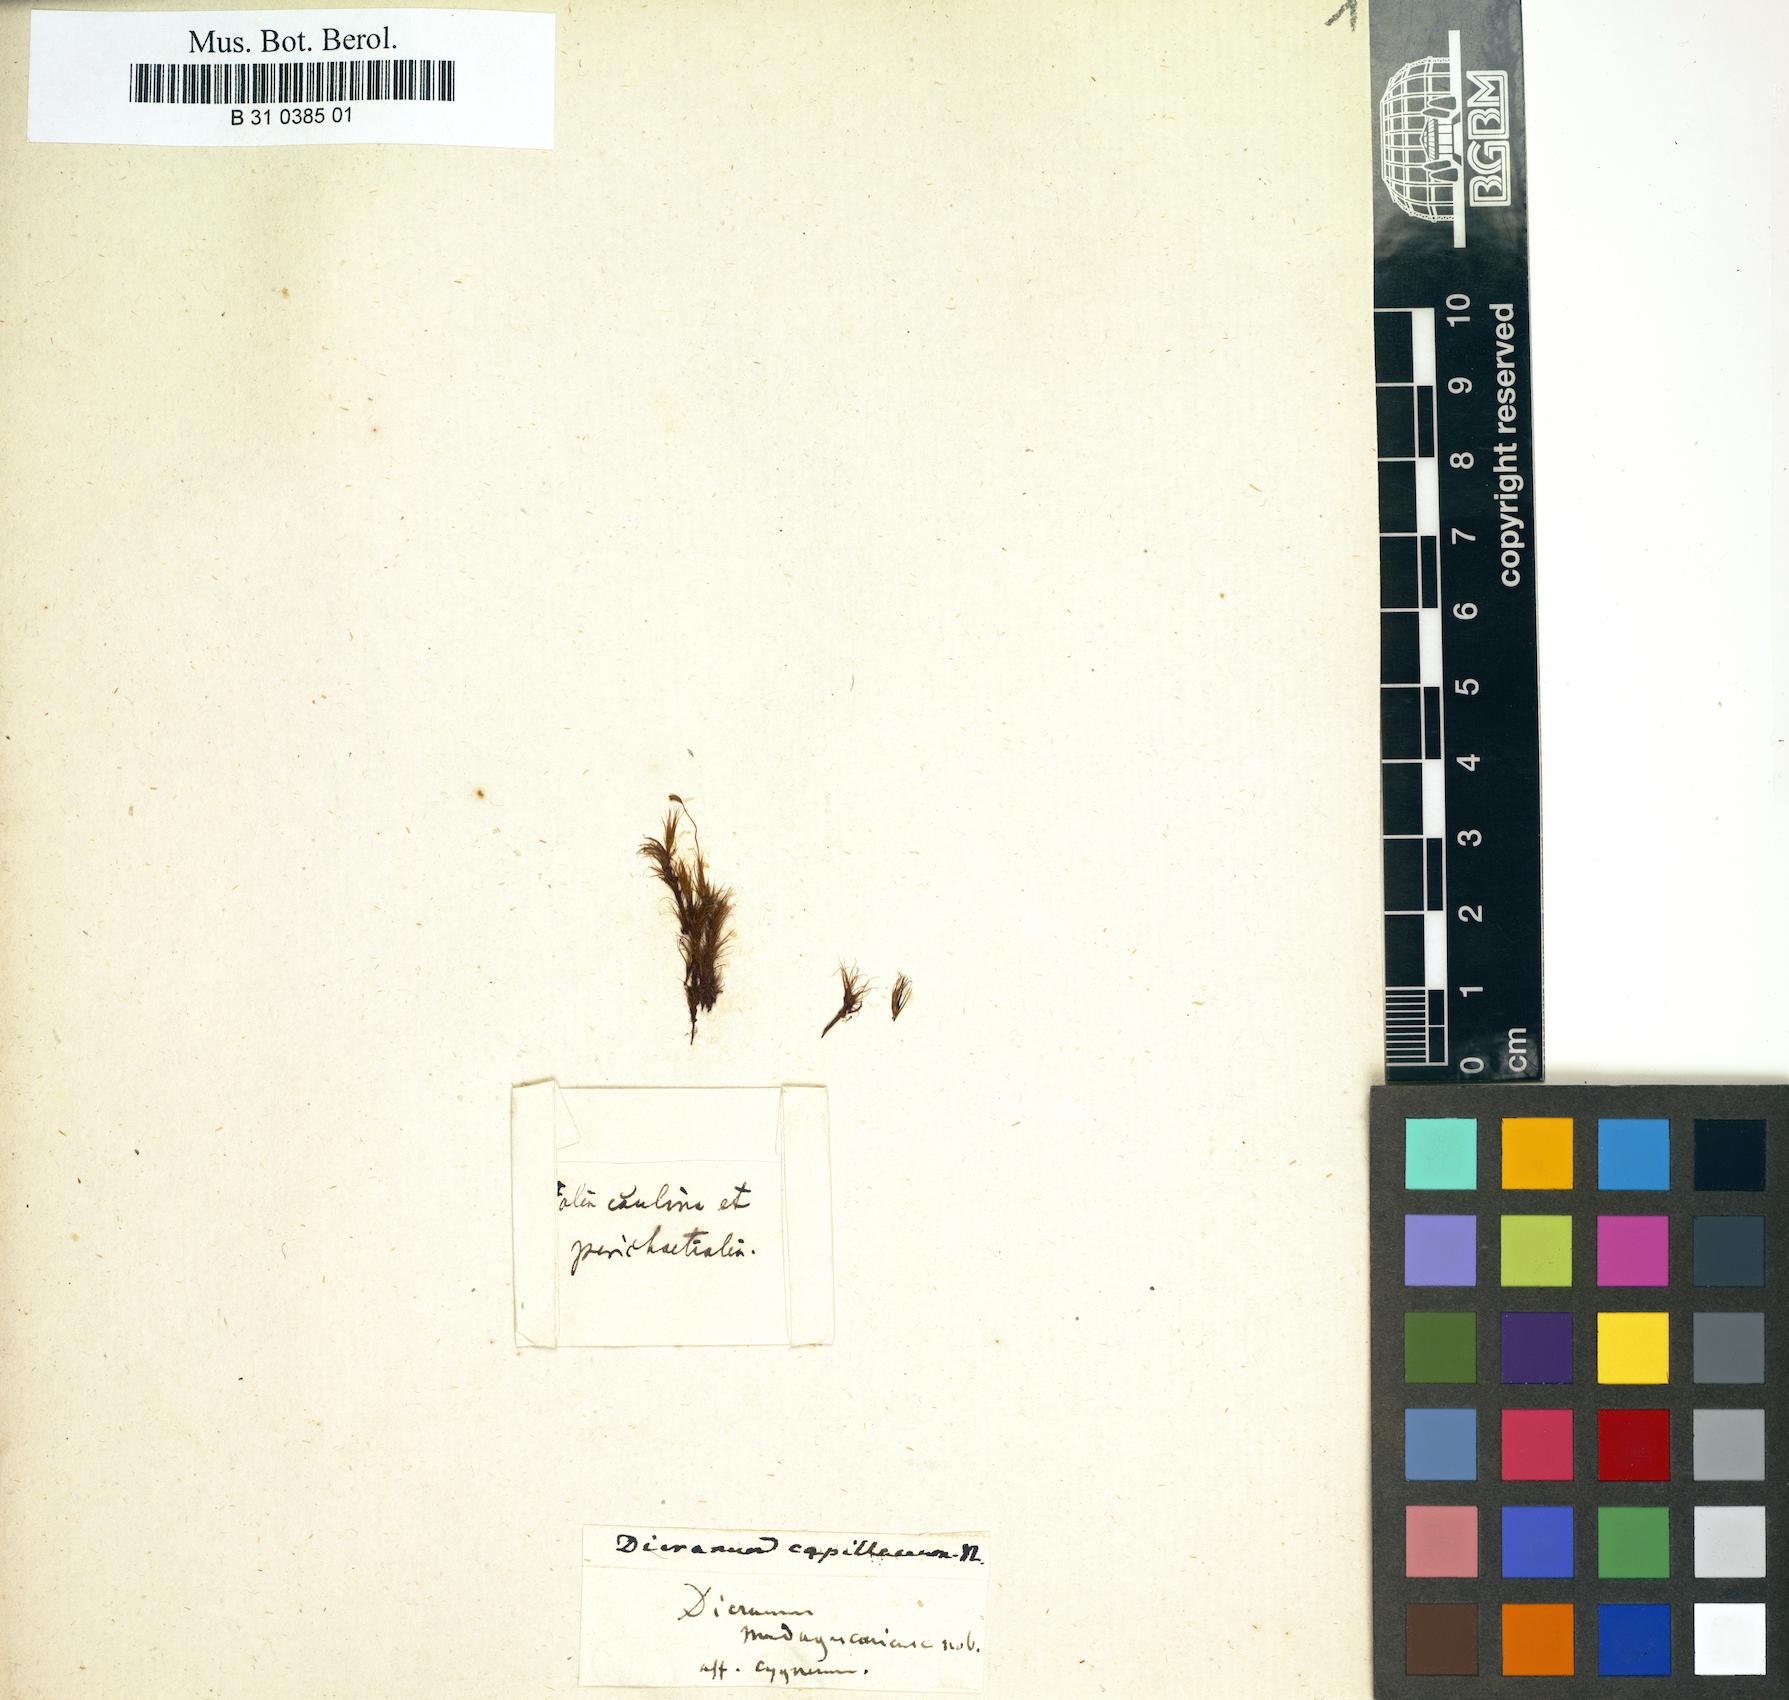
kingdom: Plantae
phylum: Bryophyta
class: Bryopsida
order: Dicranales
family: Aongstroemiaceae
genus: Aongstroemia
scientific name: Aongstroemia filiformis
